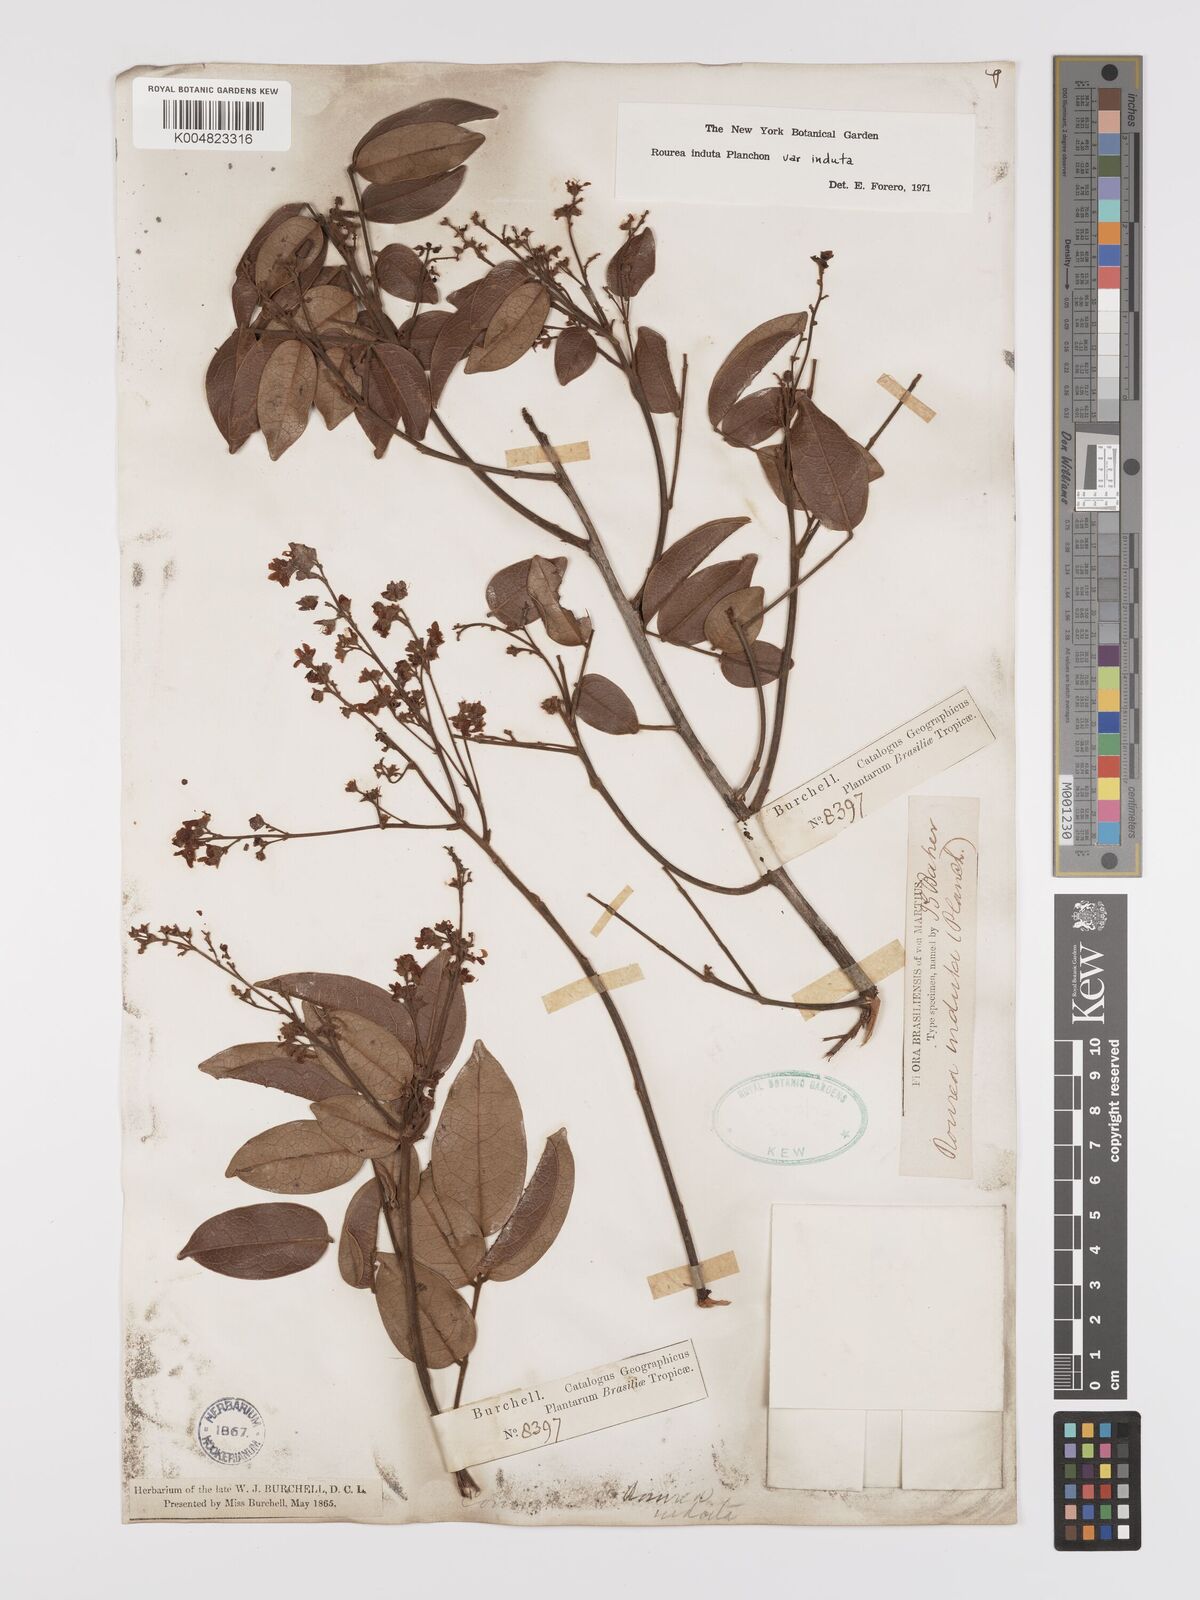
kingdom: Plantae
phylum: Tracheophyta
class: Magnoliopsida
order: Oxalidales
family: Connaraceae
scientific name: Connaraceae
